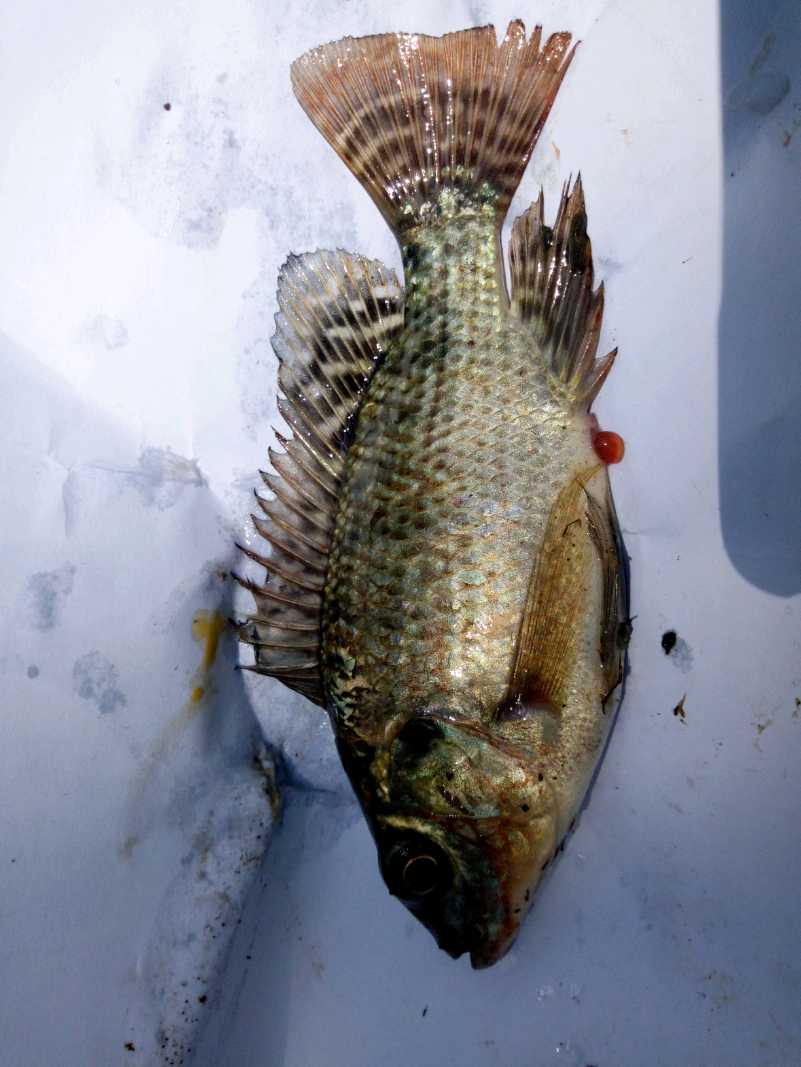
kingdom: Animalia
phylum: Chordata
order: Perciformes
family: Cichlidae
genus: Oreochromis
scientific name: Oreochromis niloticus
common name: Nile tilapia
